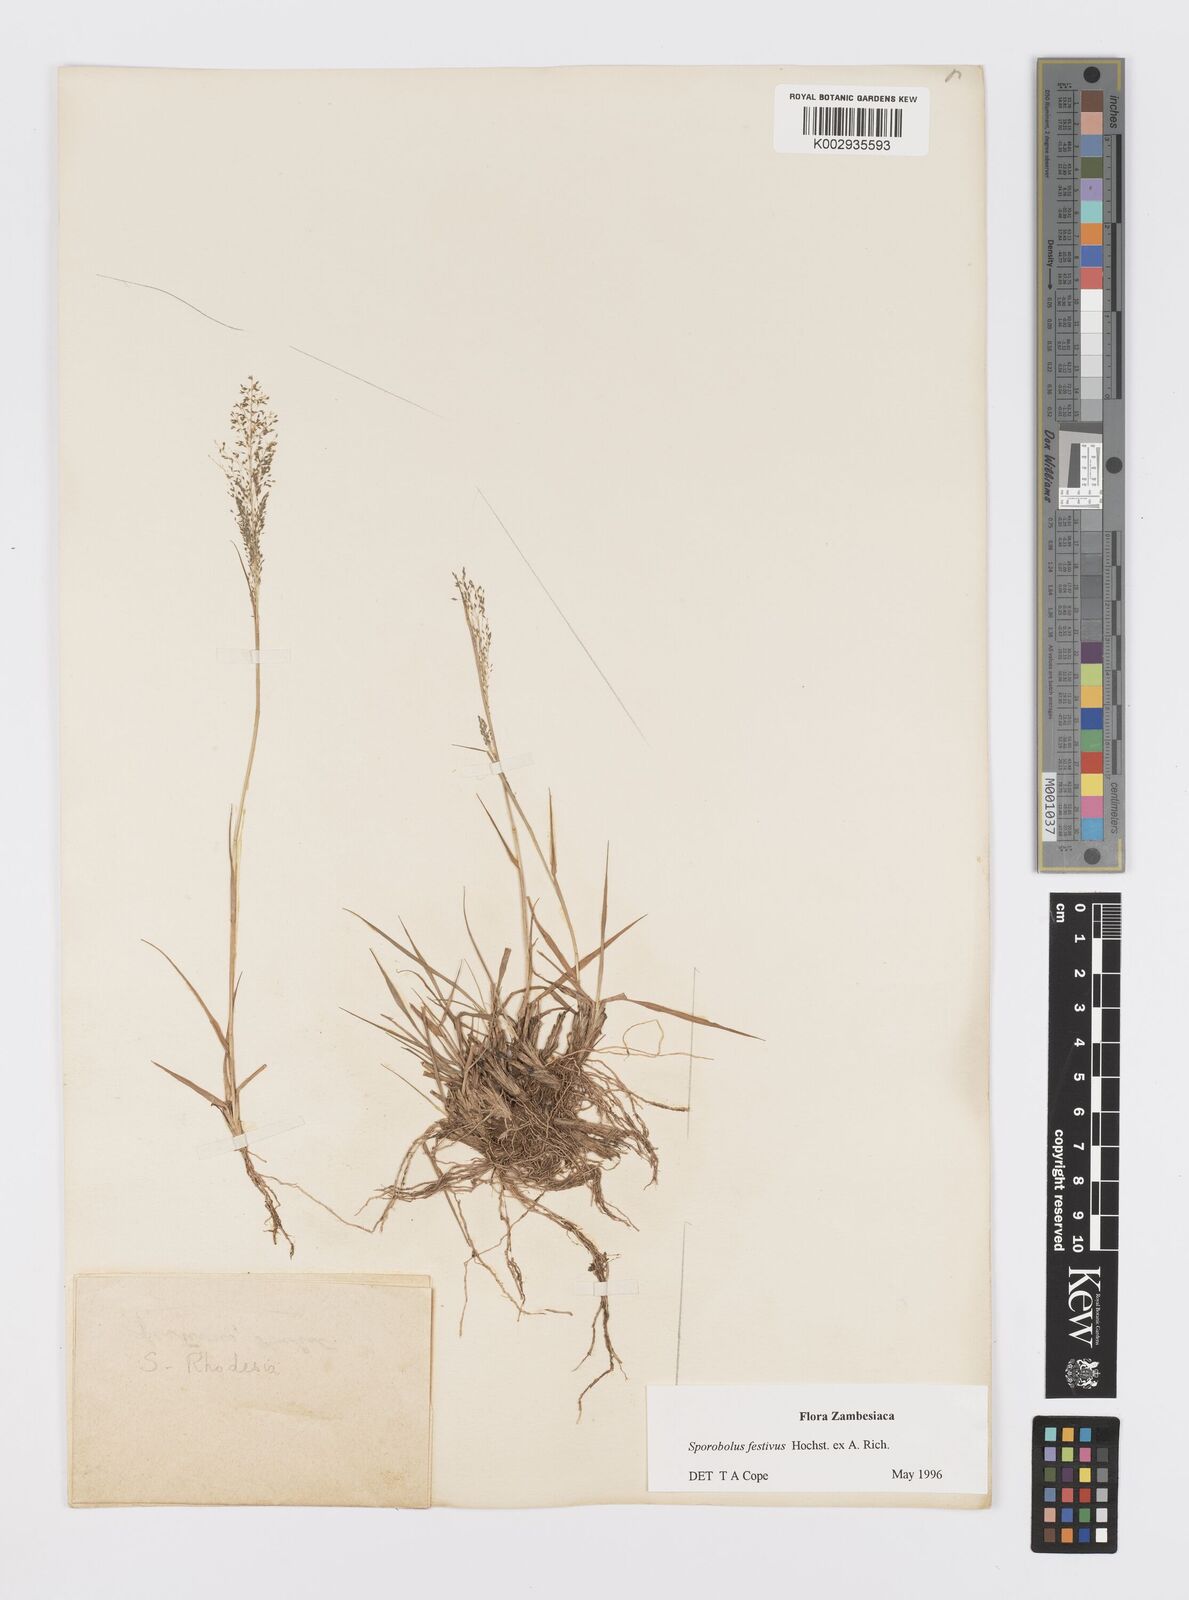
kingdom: Plantae
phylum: Tracheophyta
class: Liliopsida
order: Poales
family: Poaceae
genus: Sporobolus
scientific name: Sporobolus festivus
